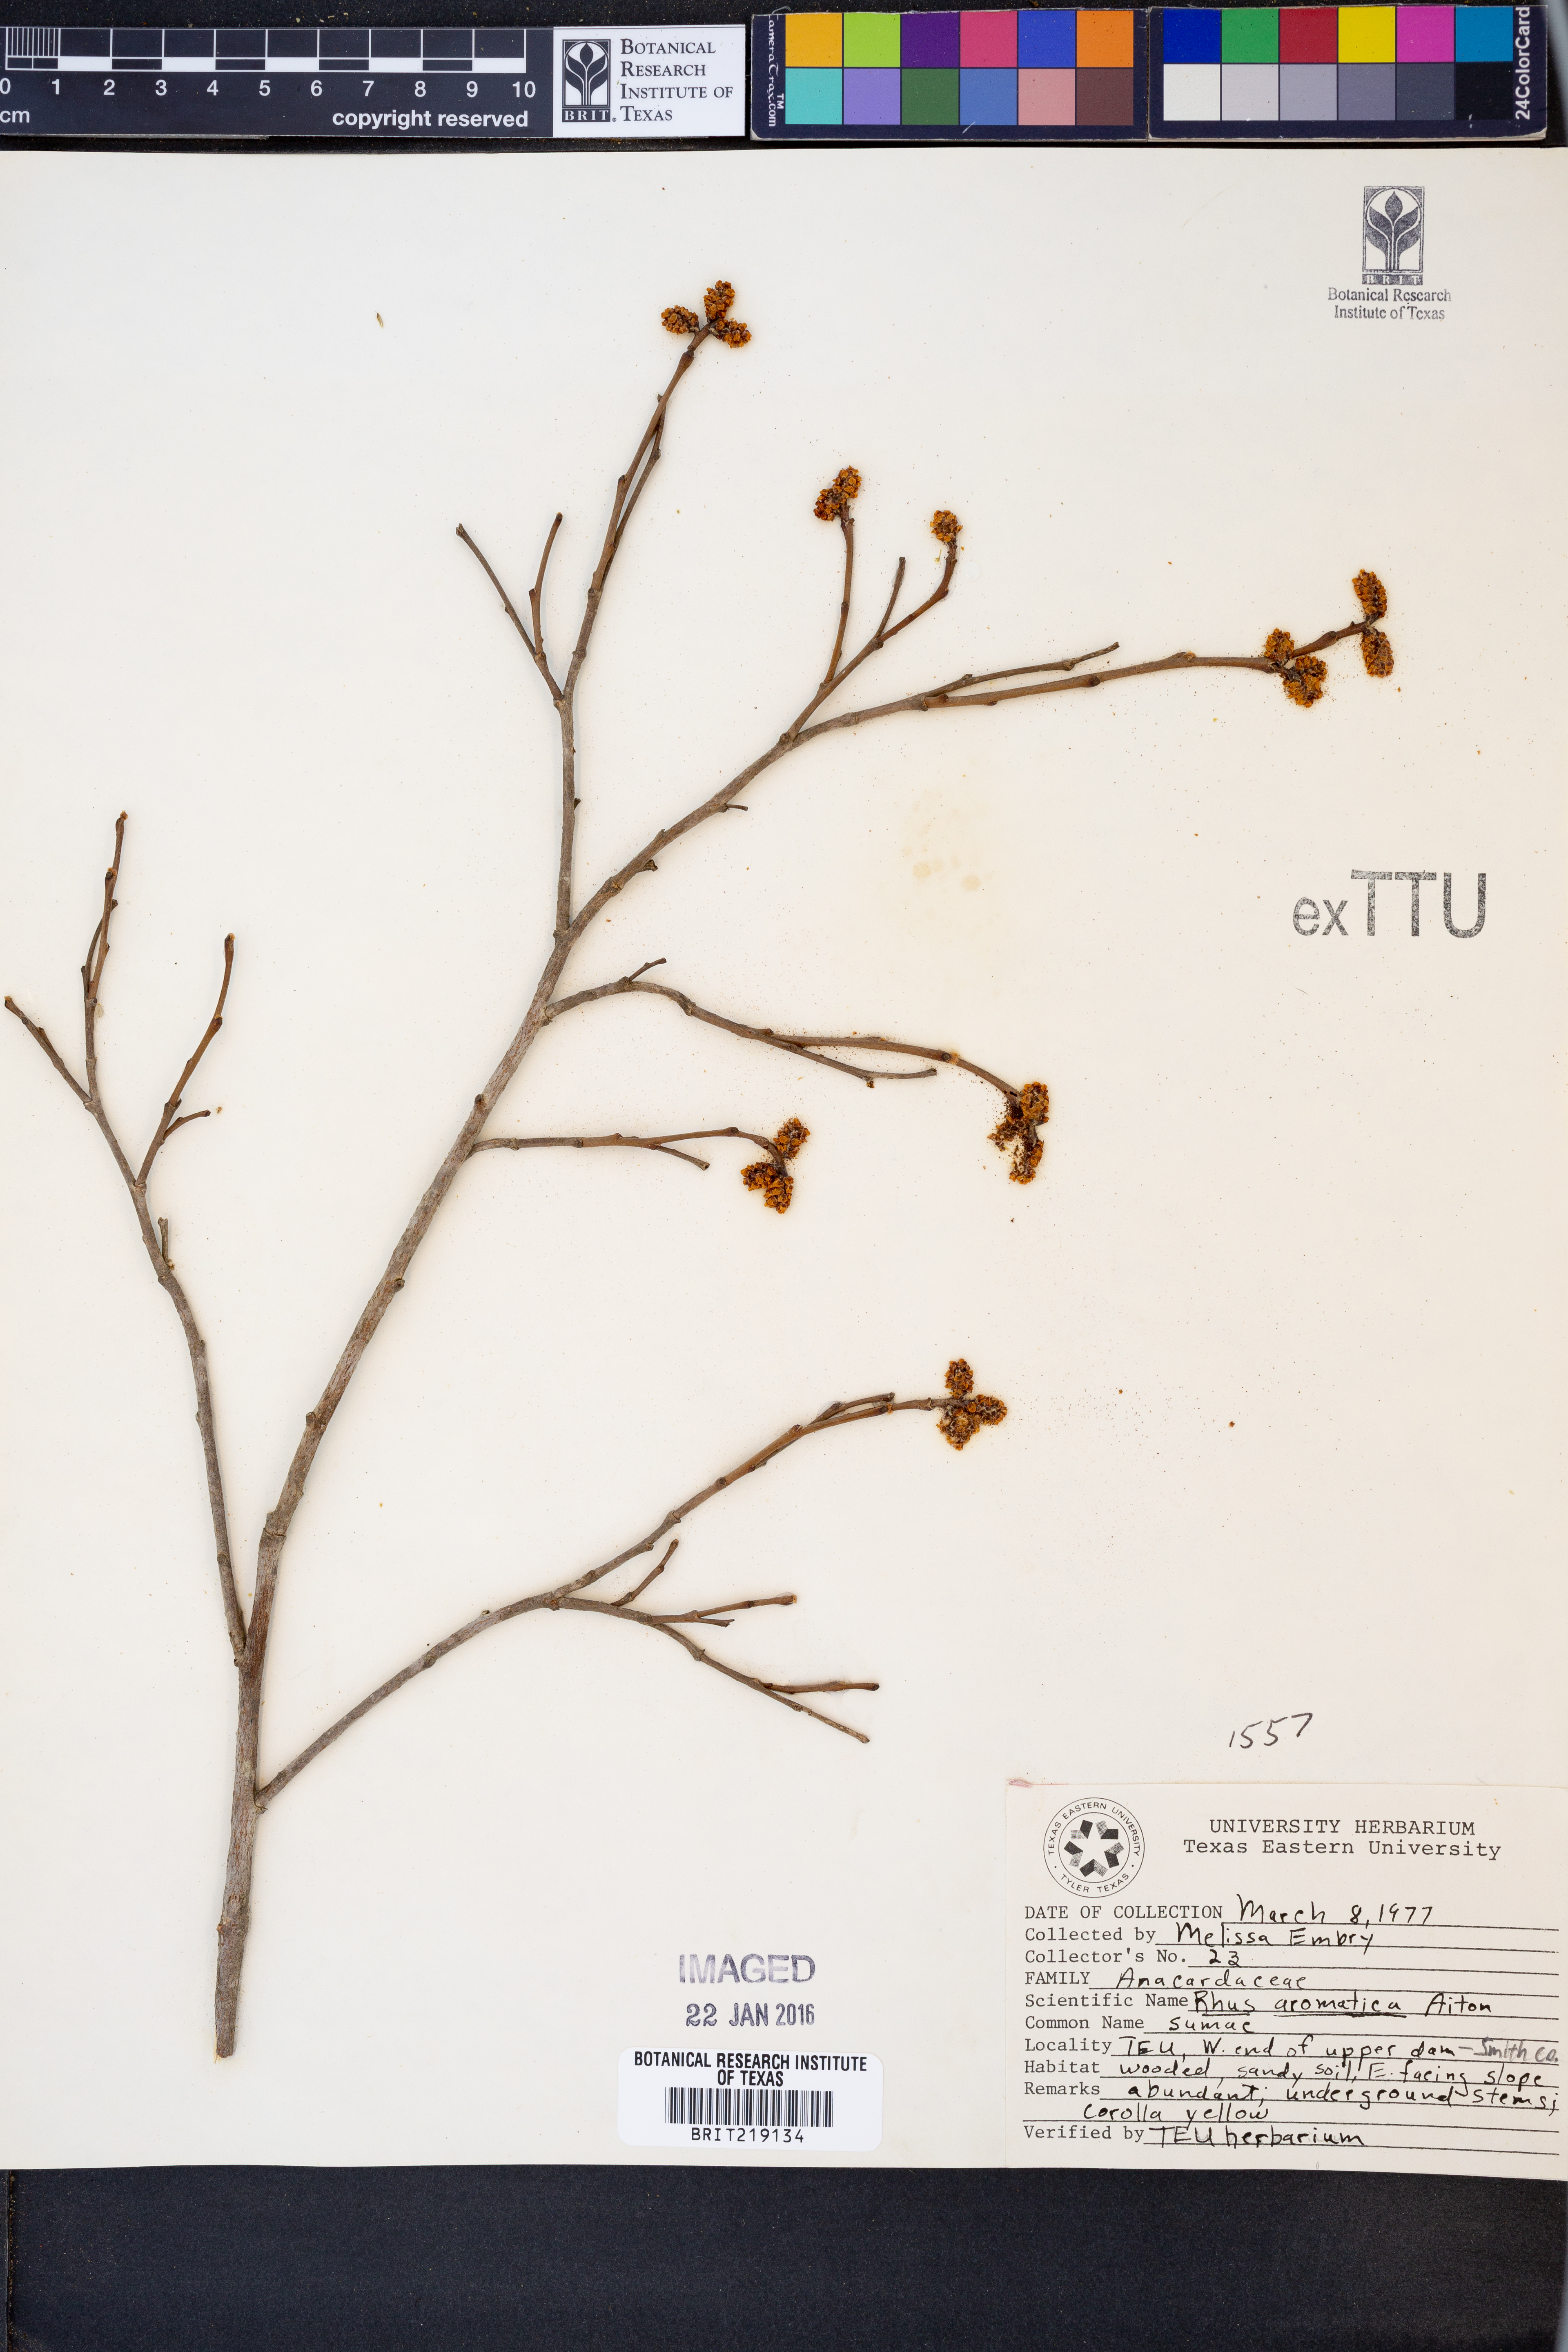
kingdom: Plantae
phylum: Tracheophyta
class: Magnoliopsida
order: Sapindales
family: Anacardiaceae
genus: Rhus
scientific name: Rhus aromatica
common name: Aromatic sumac
